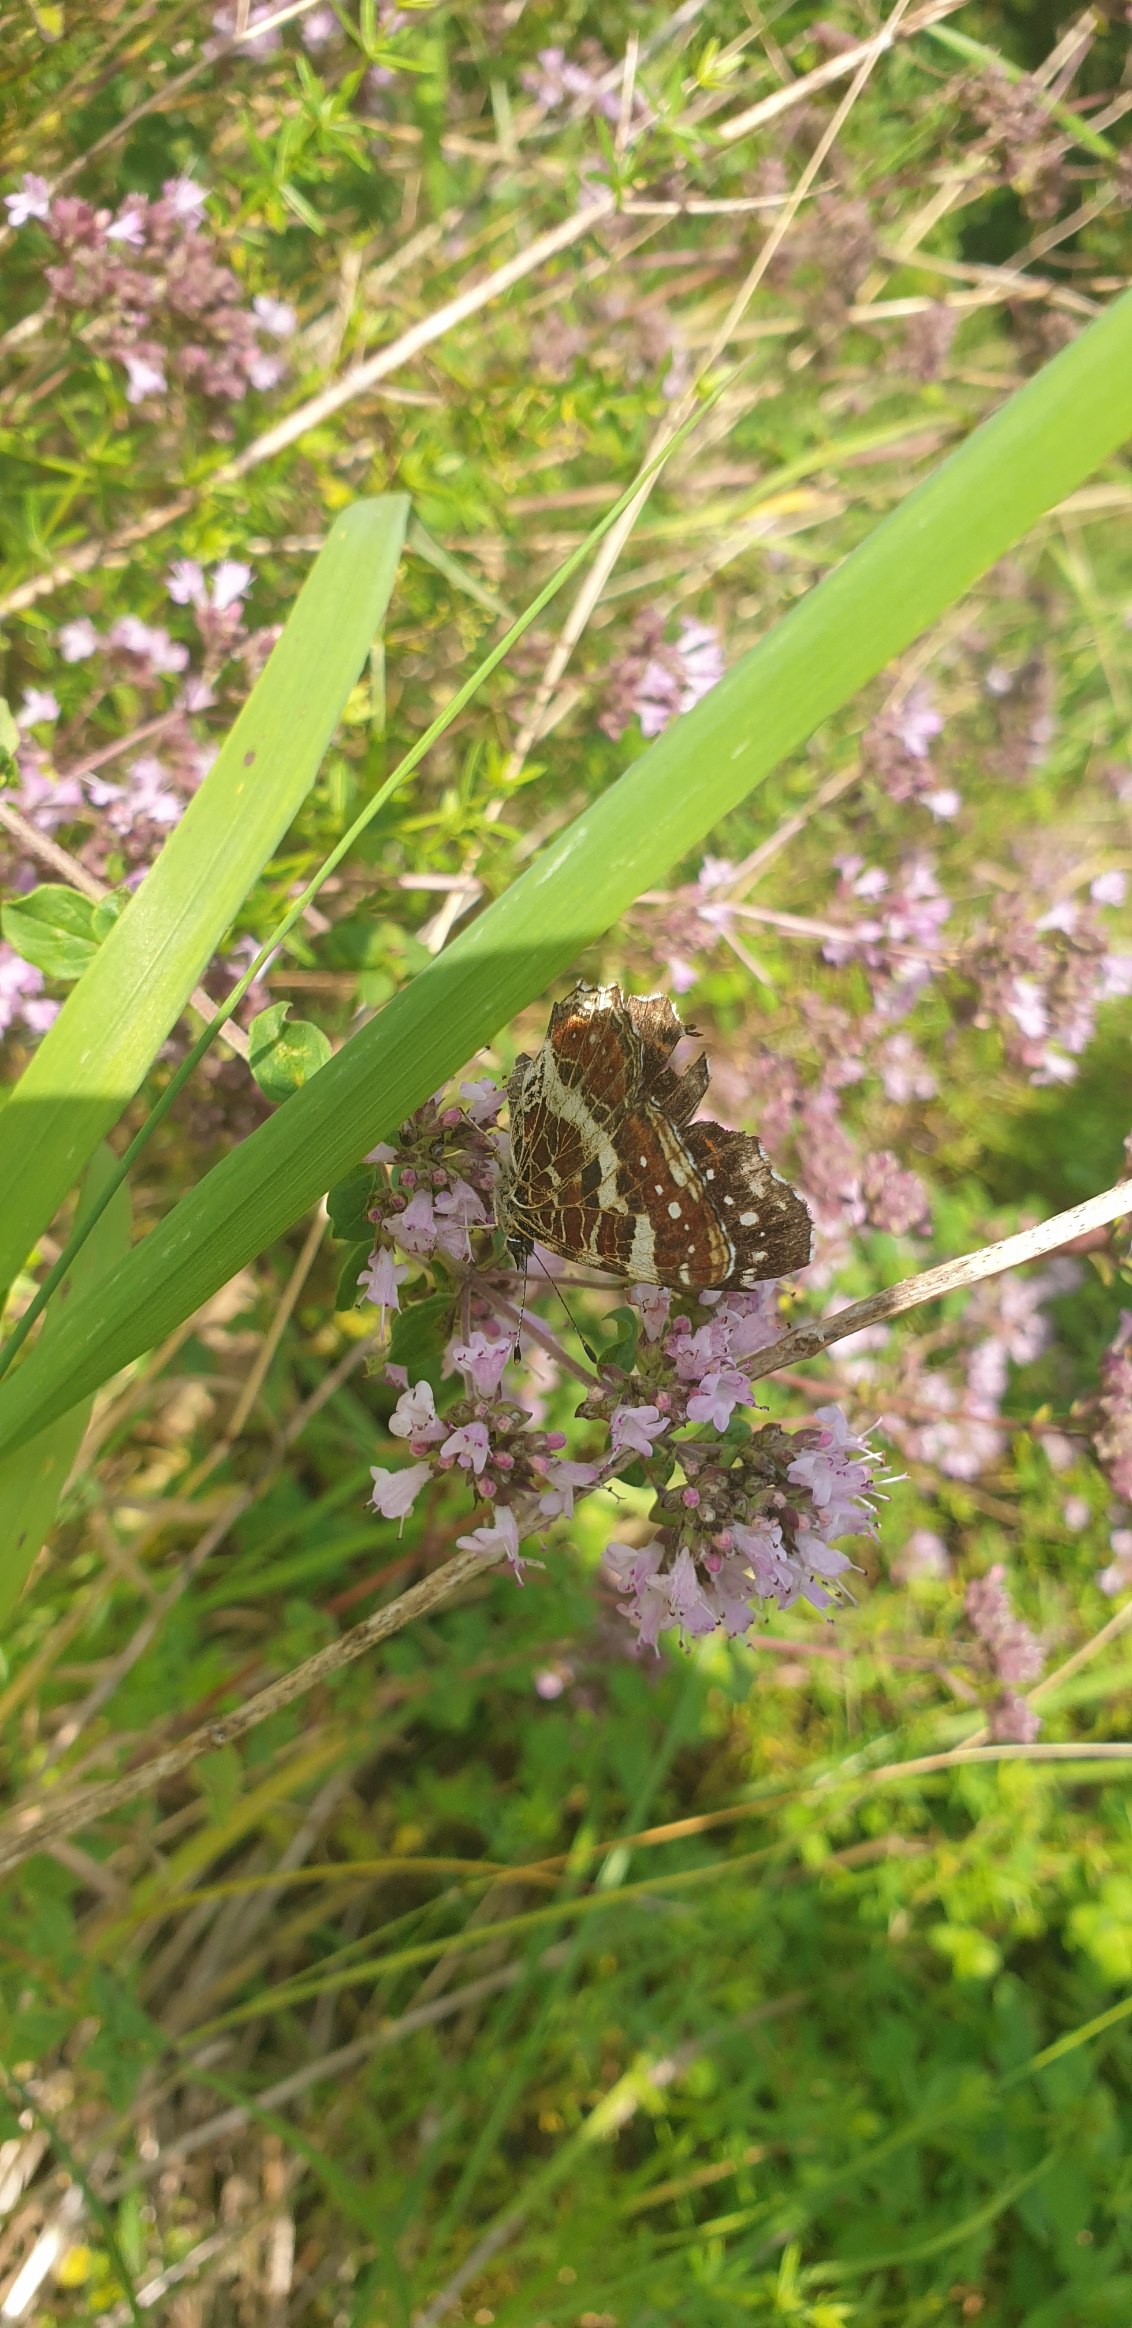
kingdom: Animalia
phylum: Arthropoda
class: Insecta
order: Lepidoptera
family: Nymphalidae
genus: Araschnia
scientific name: Araschnia levana
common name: Nældesommerfugl
